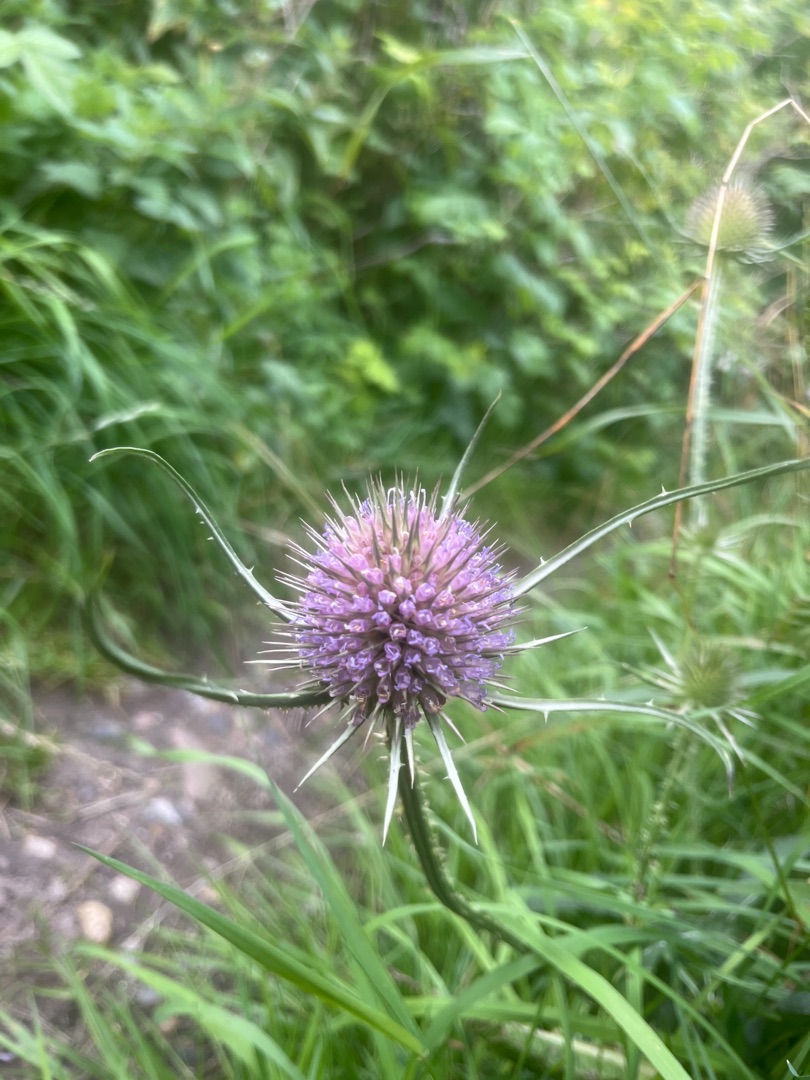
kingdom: Plantae
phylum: Tracheophyta
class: Magnoliopsida
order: Dipsacales
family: Caprifoliaceae
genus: Dipsacus
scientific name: Dipsacus fullonum
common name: Gærde-kartebolle
